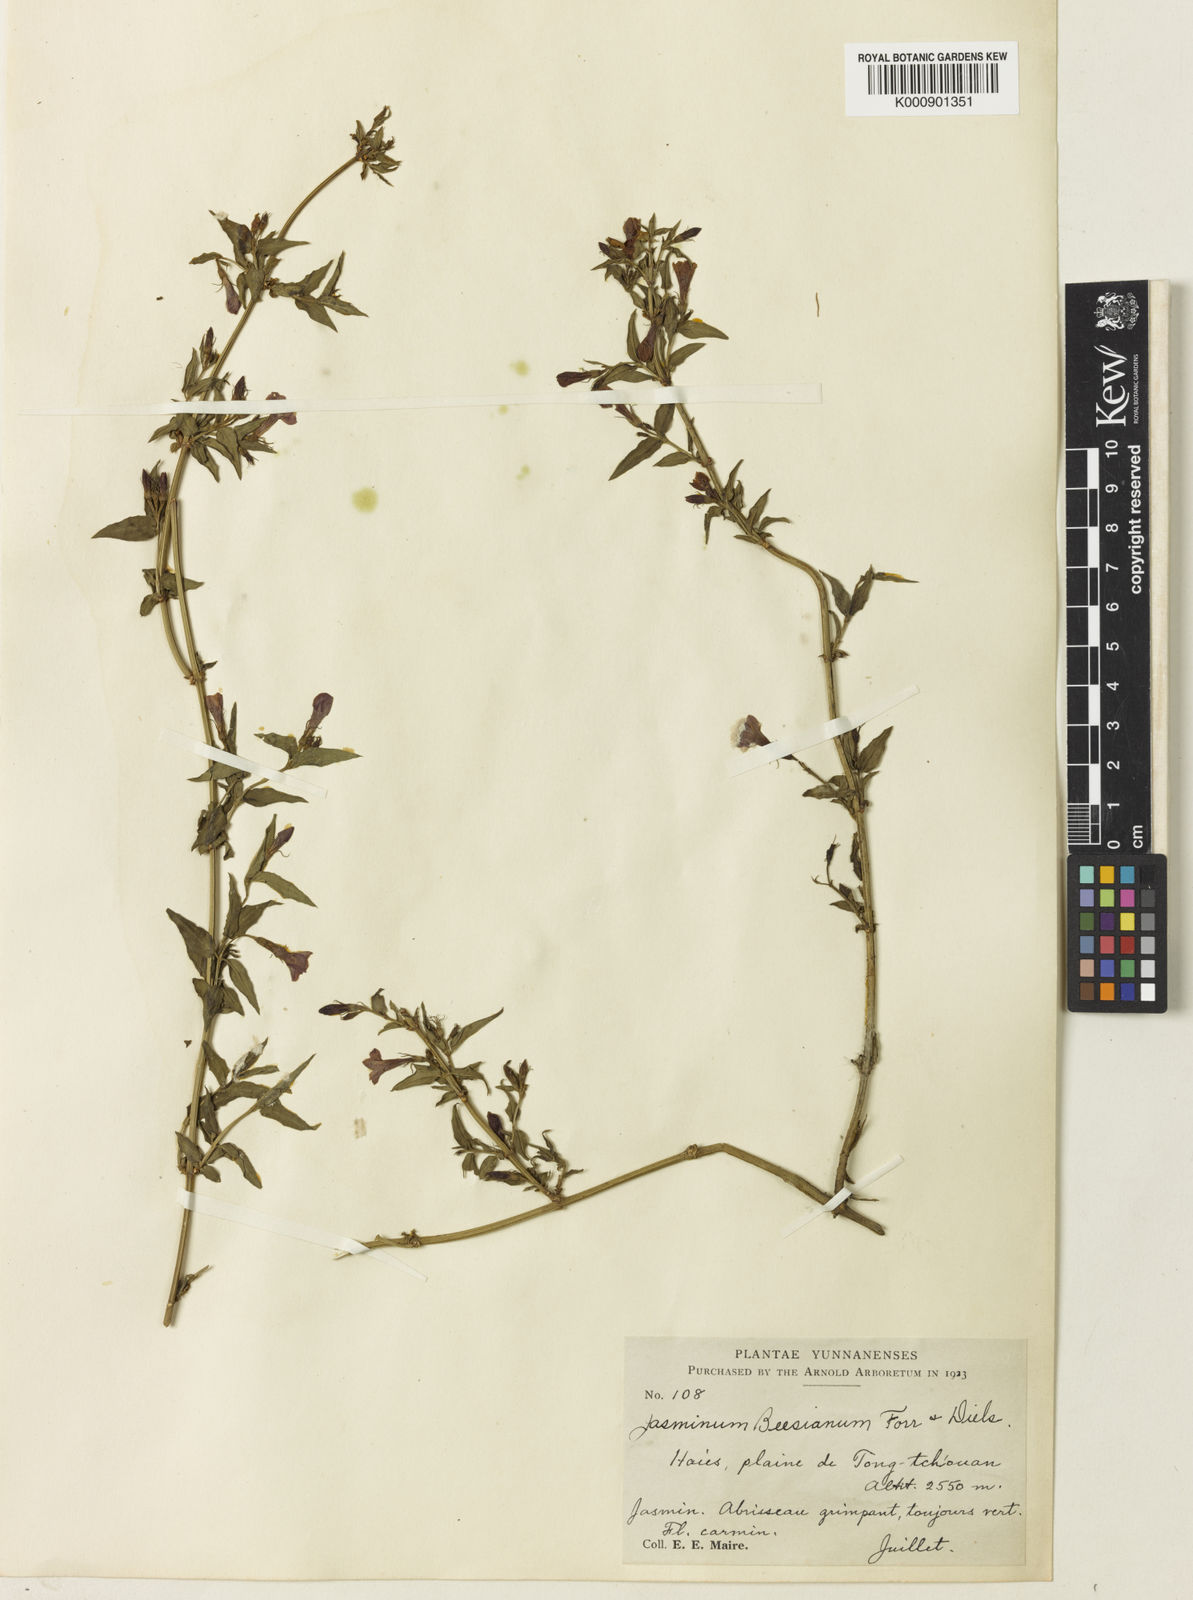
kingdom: Plantae
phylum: Tracheophyta
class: Magnoliopsida
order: Lamiales
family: Oleaceae
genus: Jasminum
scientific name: Jasminum beesianum
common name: Red jasmine
